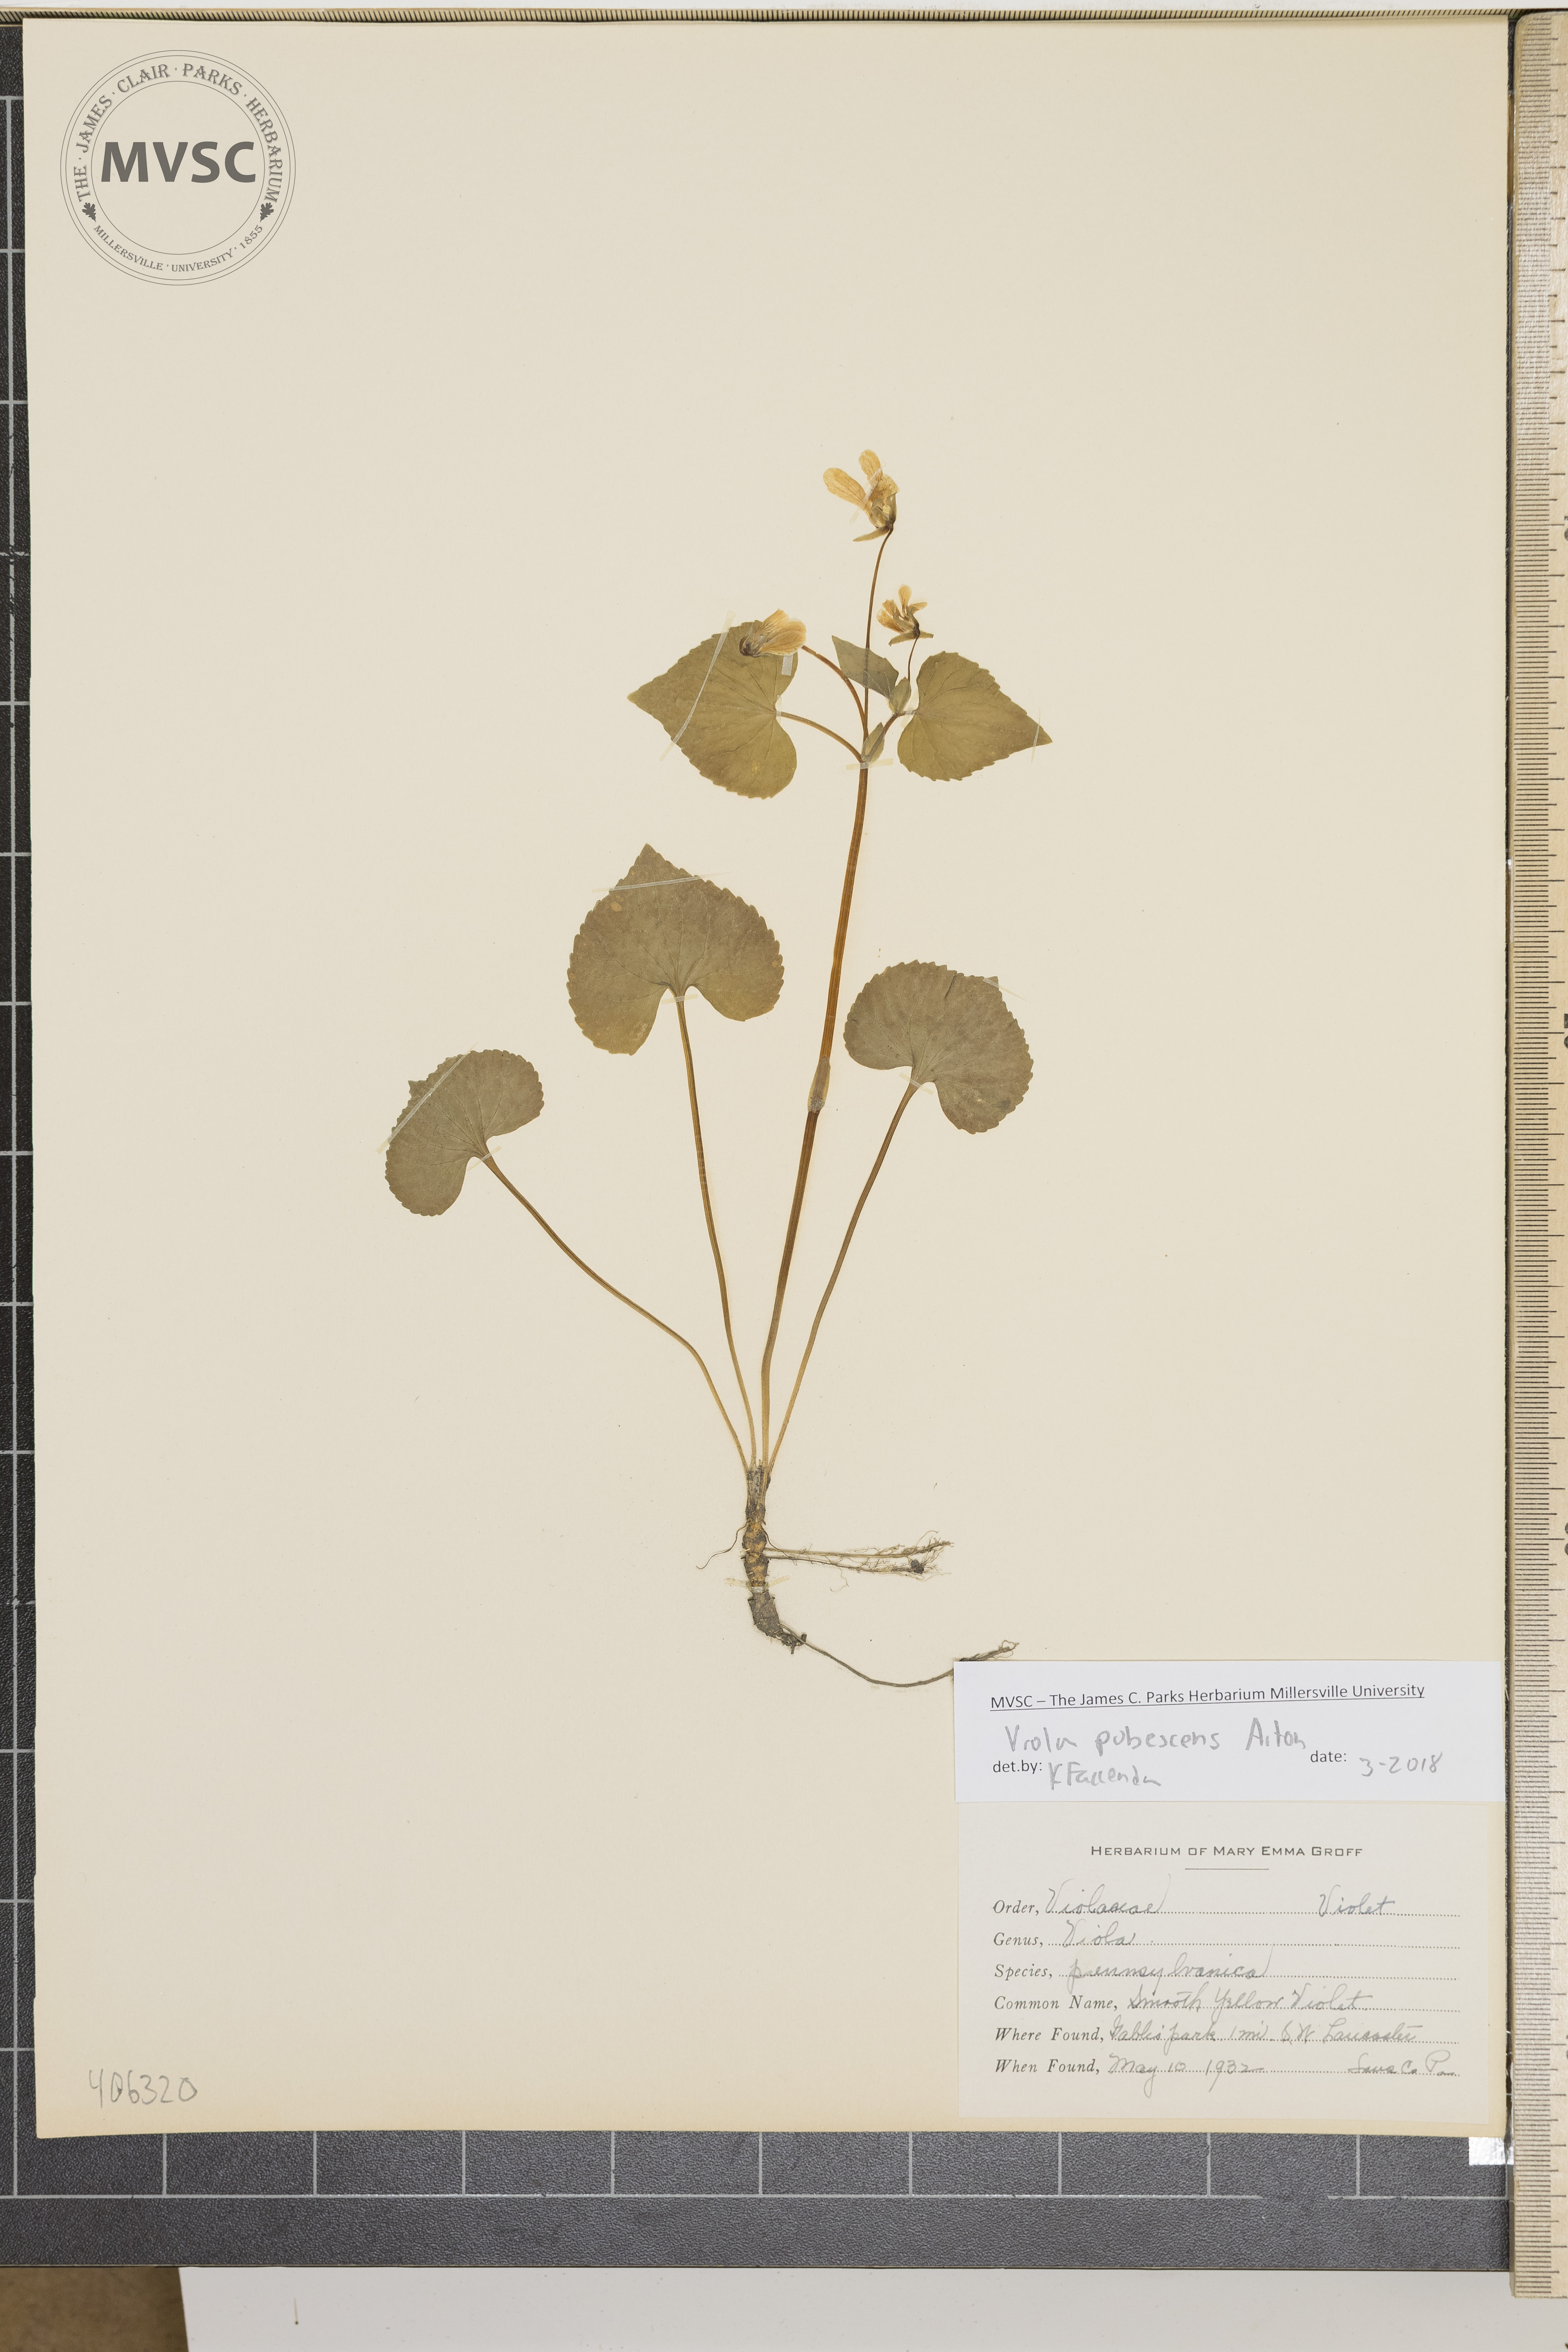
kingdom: Plantae
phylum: Tracheophyta
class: Magnoliopsida
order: Malpighiales
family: Violaceae
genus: Viola
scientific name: Viola pubescens
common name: smooth yellow violet
